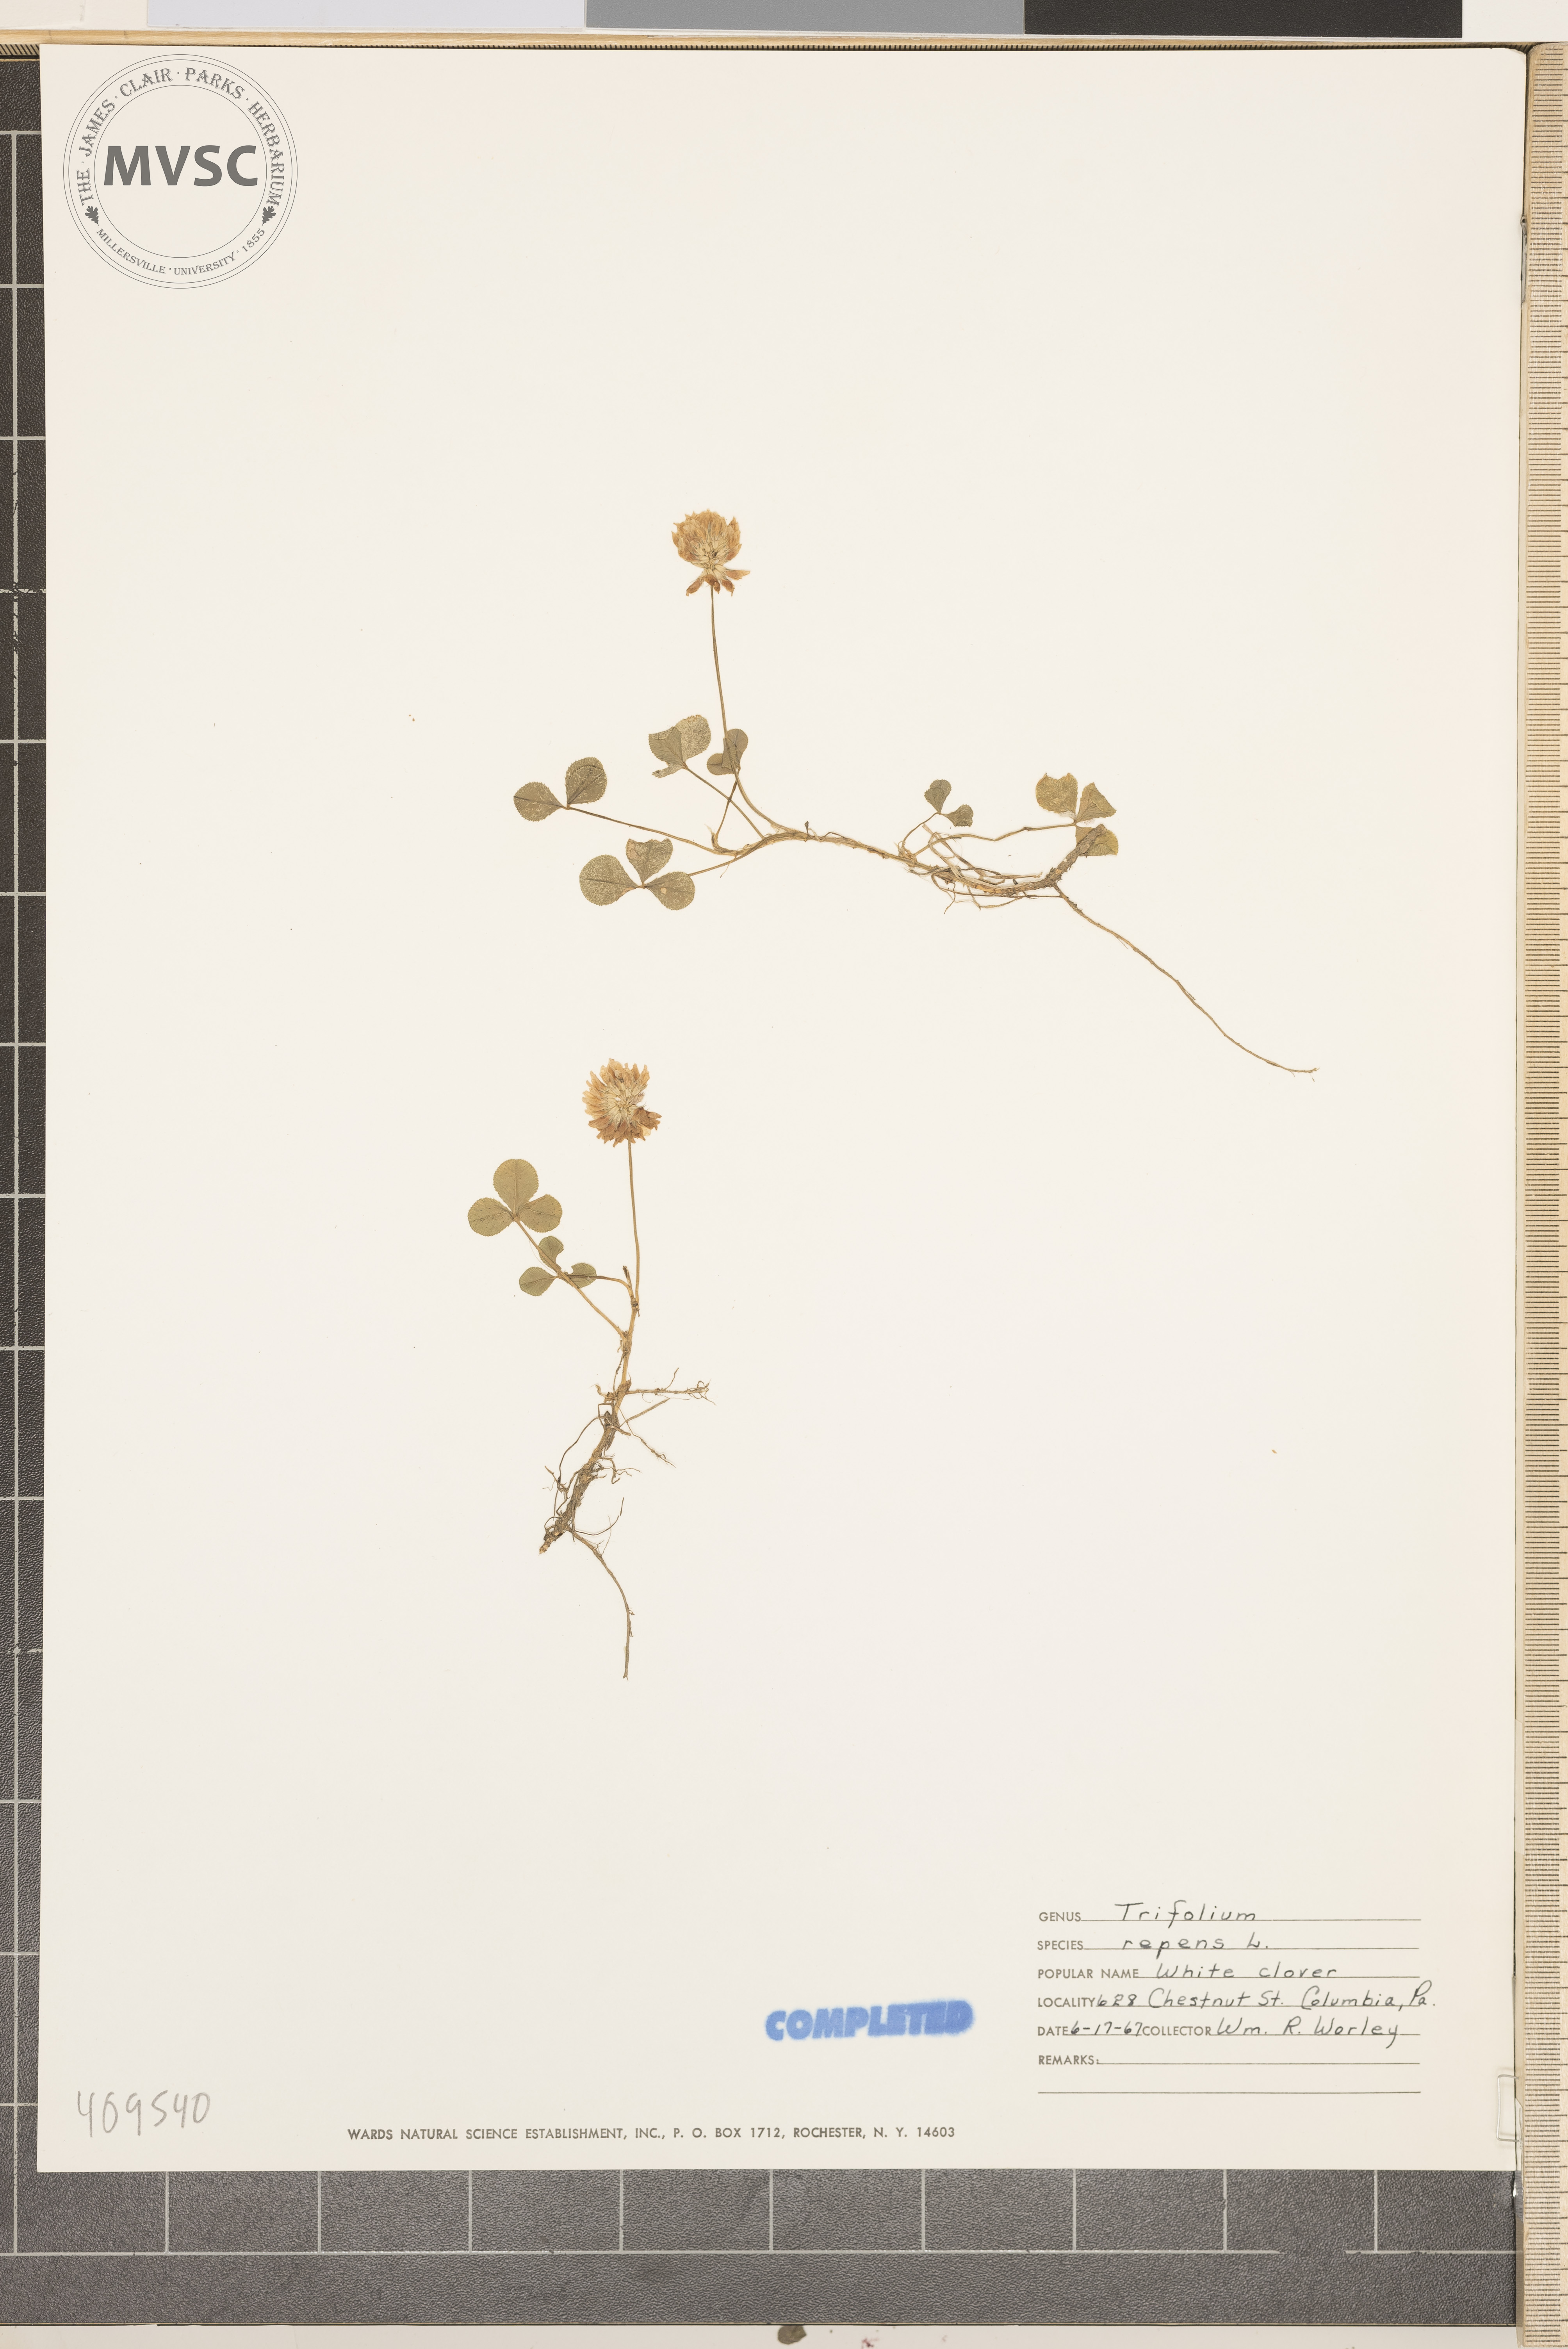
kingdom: Plantae
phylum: Tracheophyta
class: Magnoliopsida
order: Fabales
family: Fabaceae
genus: Trifolium
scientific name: Trifolium repens
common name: White clover
